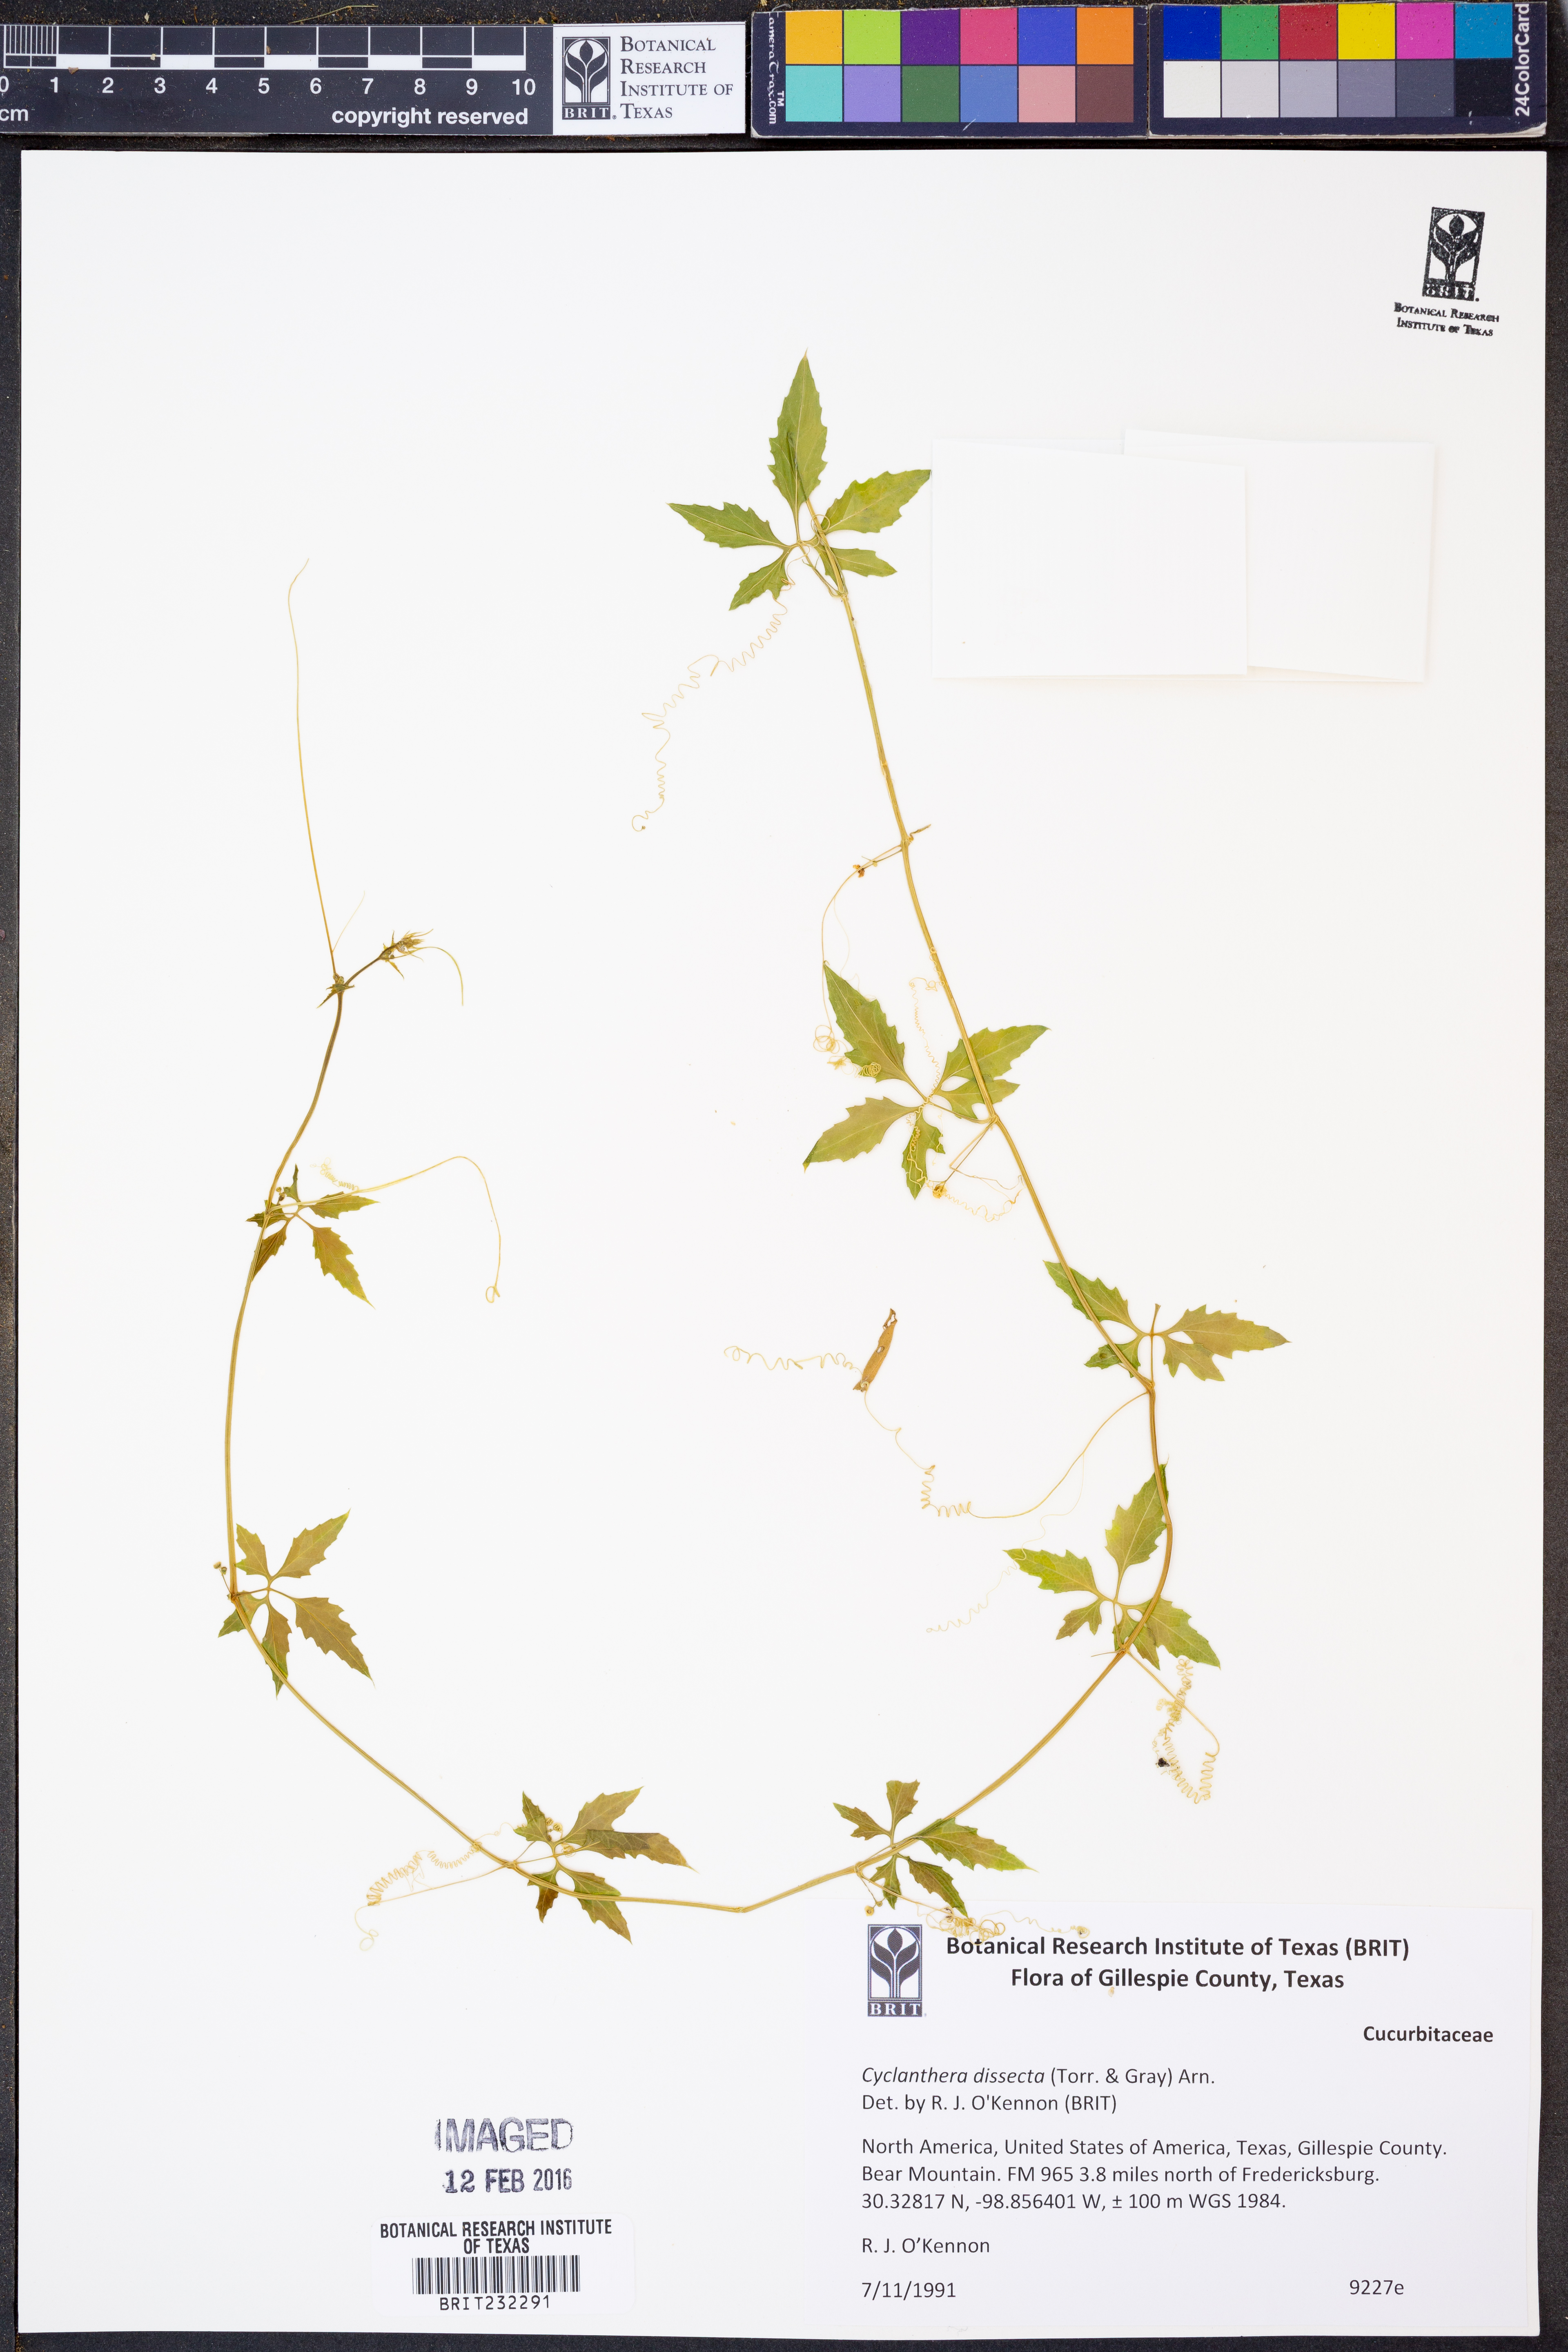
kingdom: Plantae
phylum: Tracheophyta
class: Magnoliopsida
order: Cucurbitales
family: Cucurbitaceae
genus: Cyclanthera
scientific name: Cyclanthera dissecta
